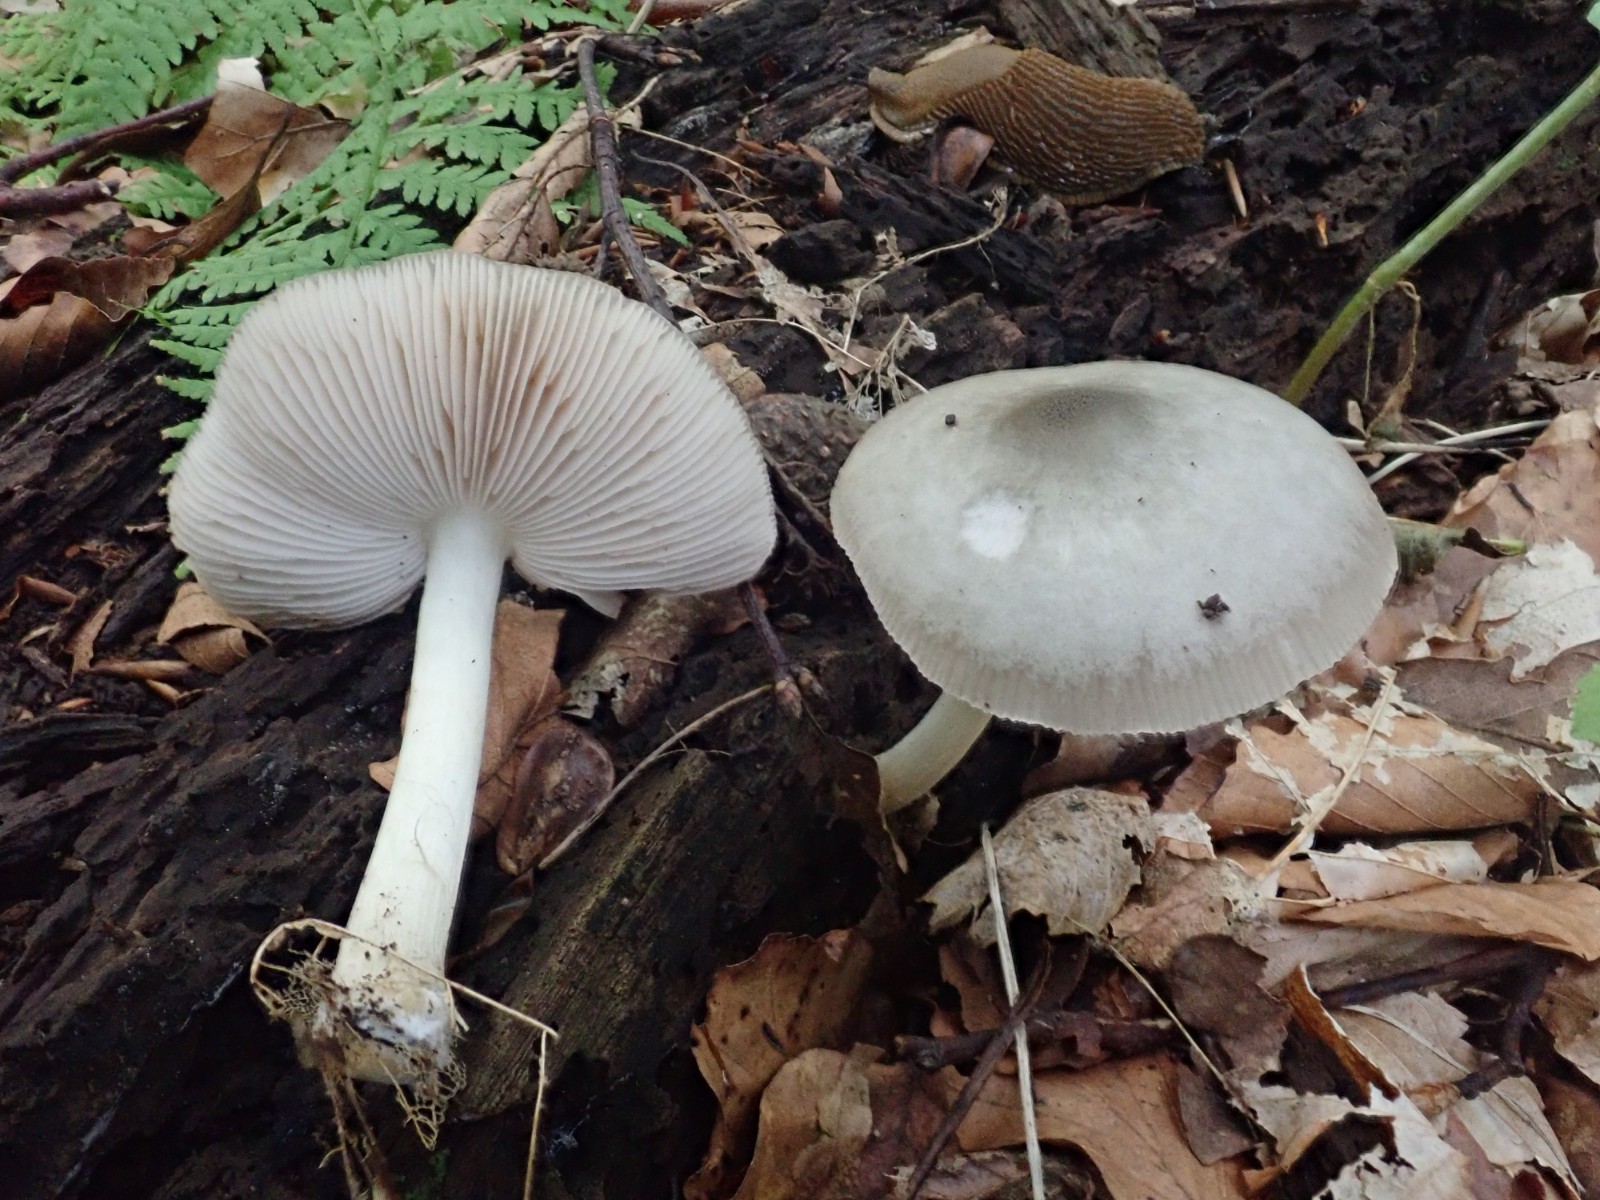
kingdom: Fungi
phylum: Basidiomycota
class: Agaricomycetes
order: Agaricales
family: Pluteaceae
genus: Pluteus
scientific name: Pluteus salicinus
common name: stiv skærmhat
